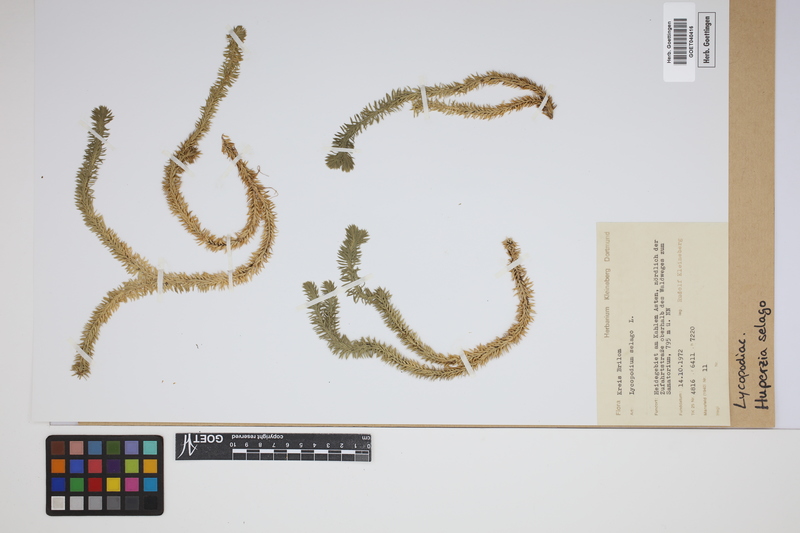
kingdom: Plantae
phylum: Tracheophyta
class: Lycopodiopsida
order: Lycopodiales
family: Lycopodiaceae
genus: Huperzia
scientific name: Huperzia selago
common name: Northern firmoss
